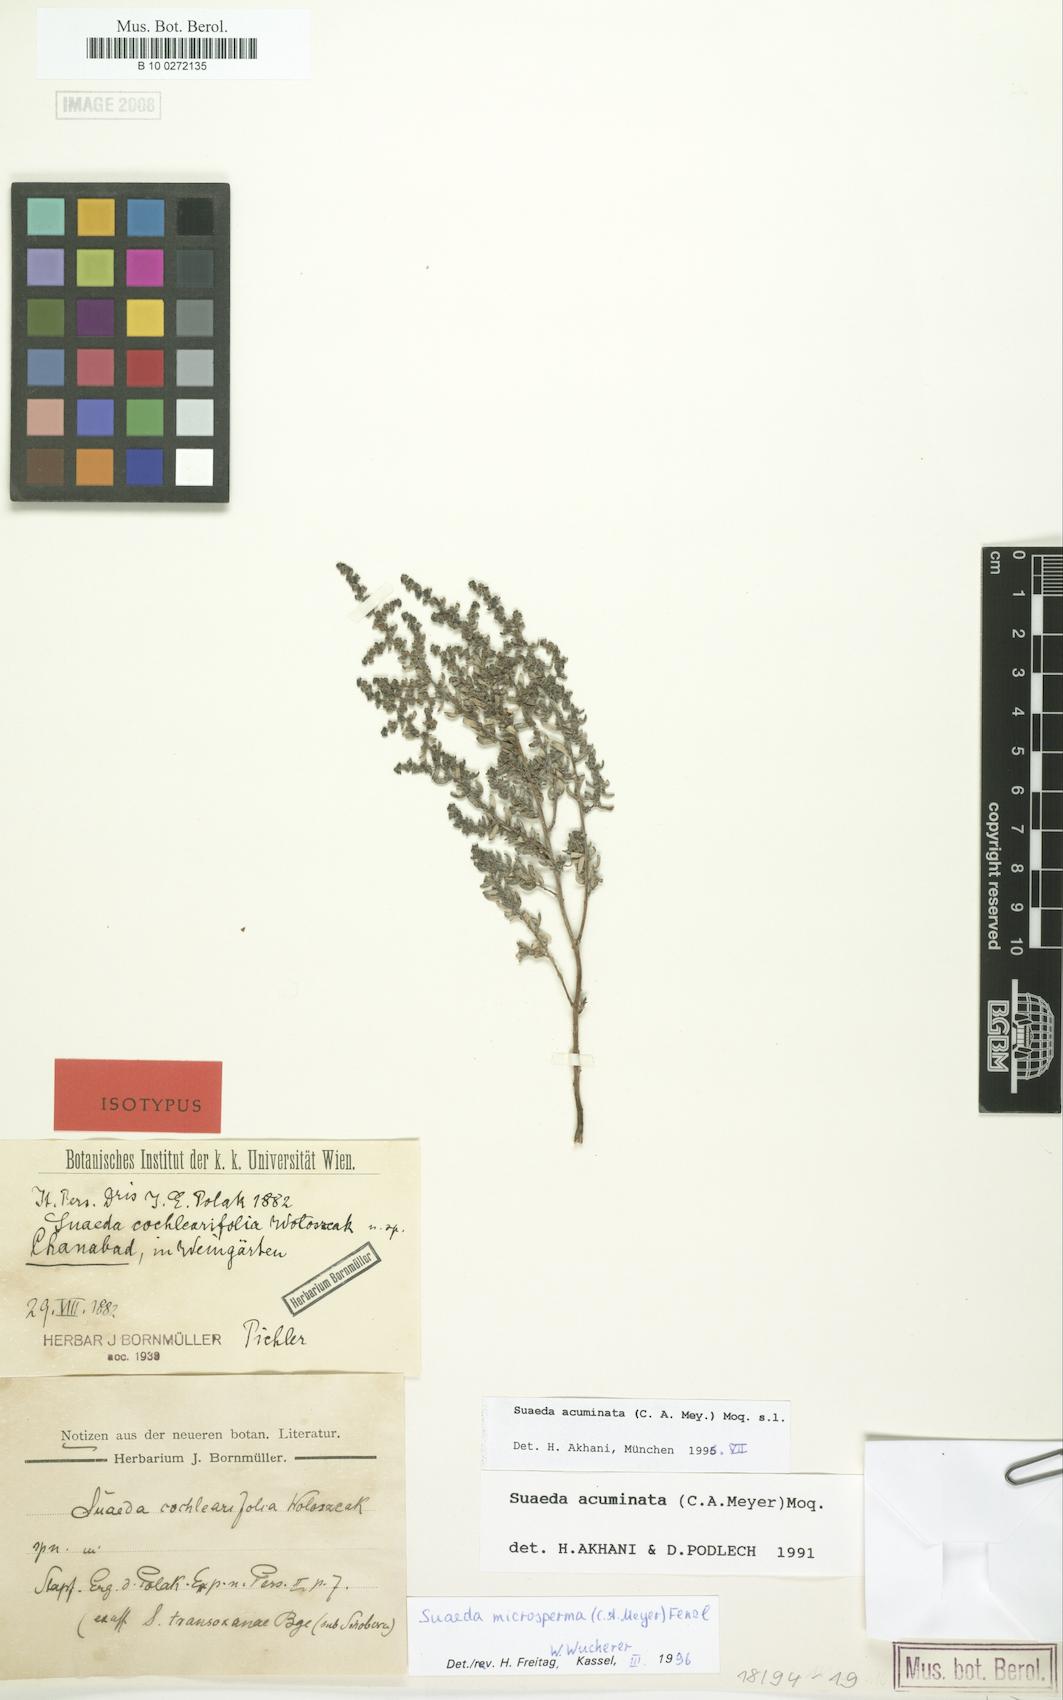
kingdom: Plantae
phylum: Tracheophyta
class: Magnoliopsida
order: Caryophyllales
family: Amaranthaceae
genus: Suaeda
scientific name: Suaeda acuminata
